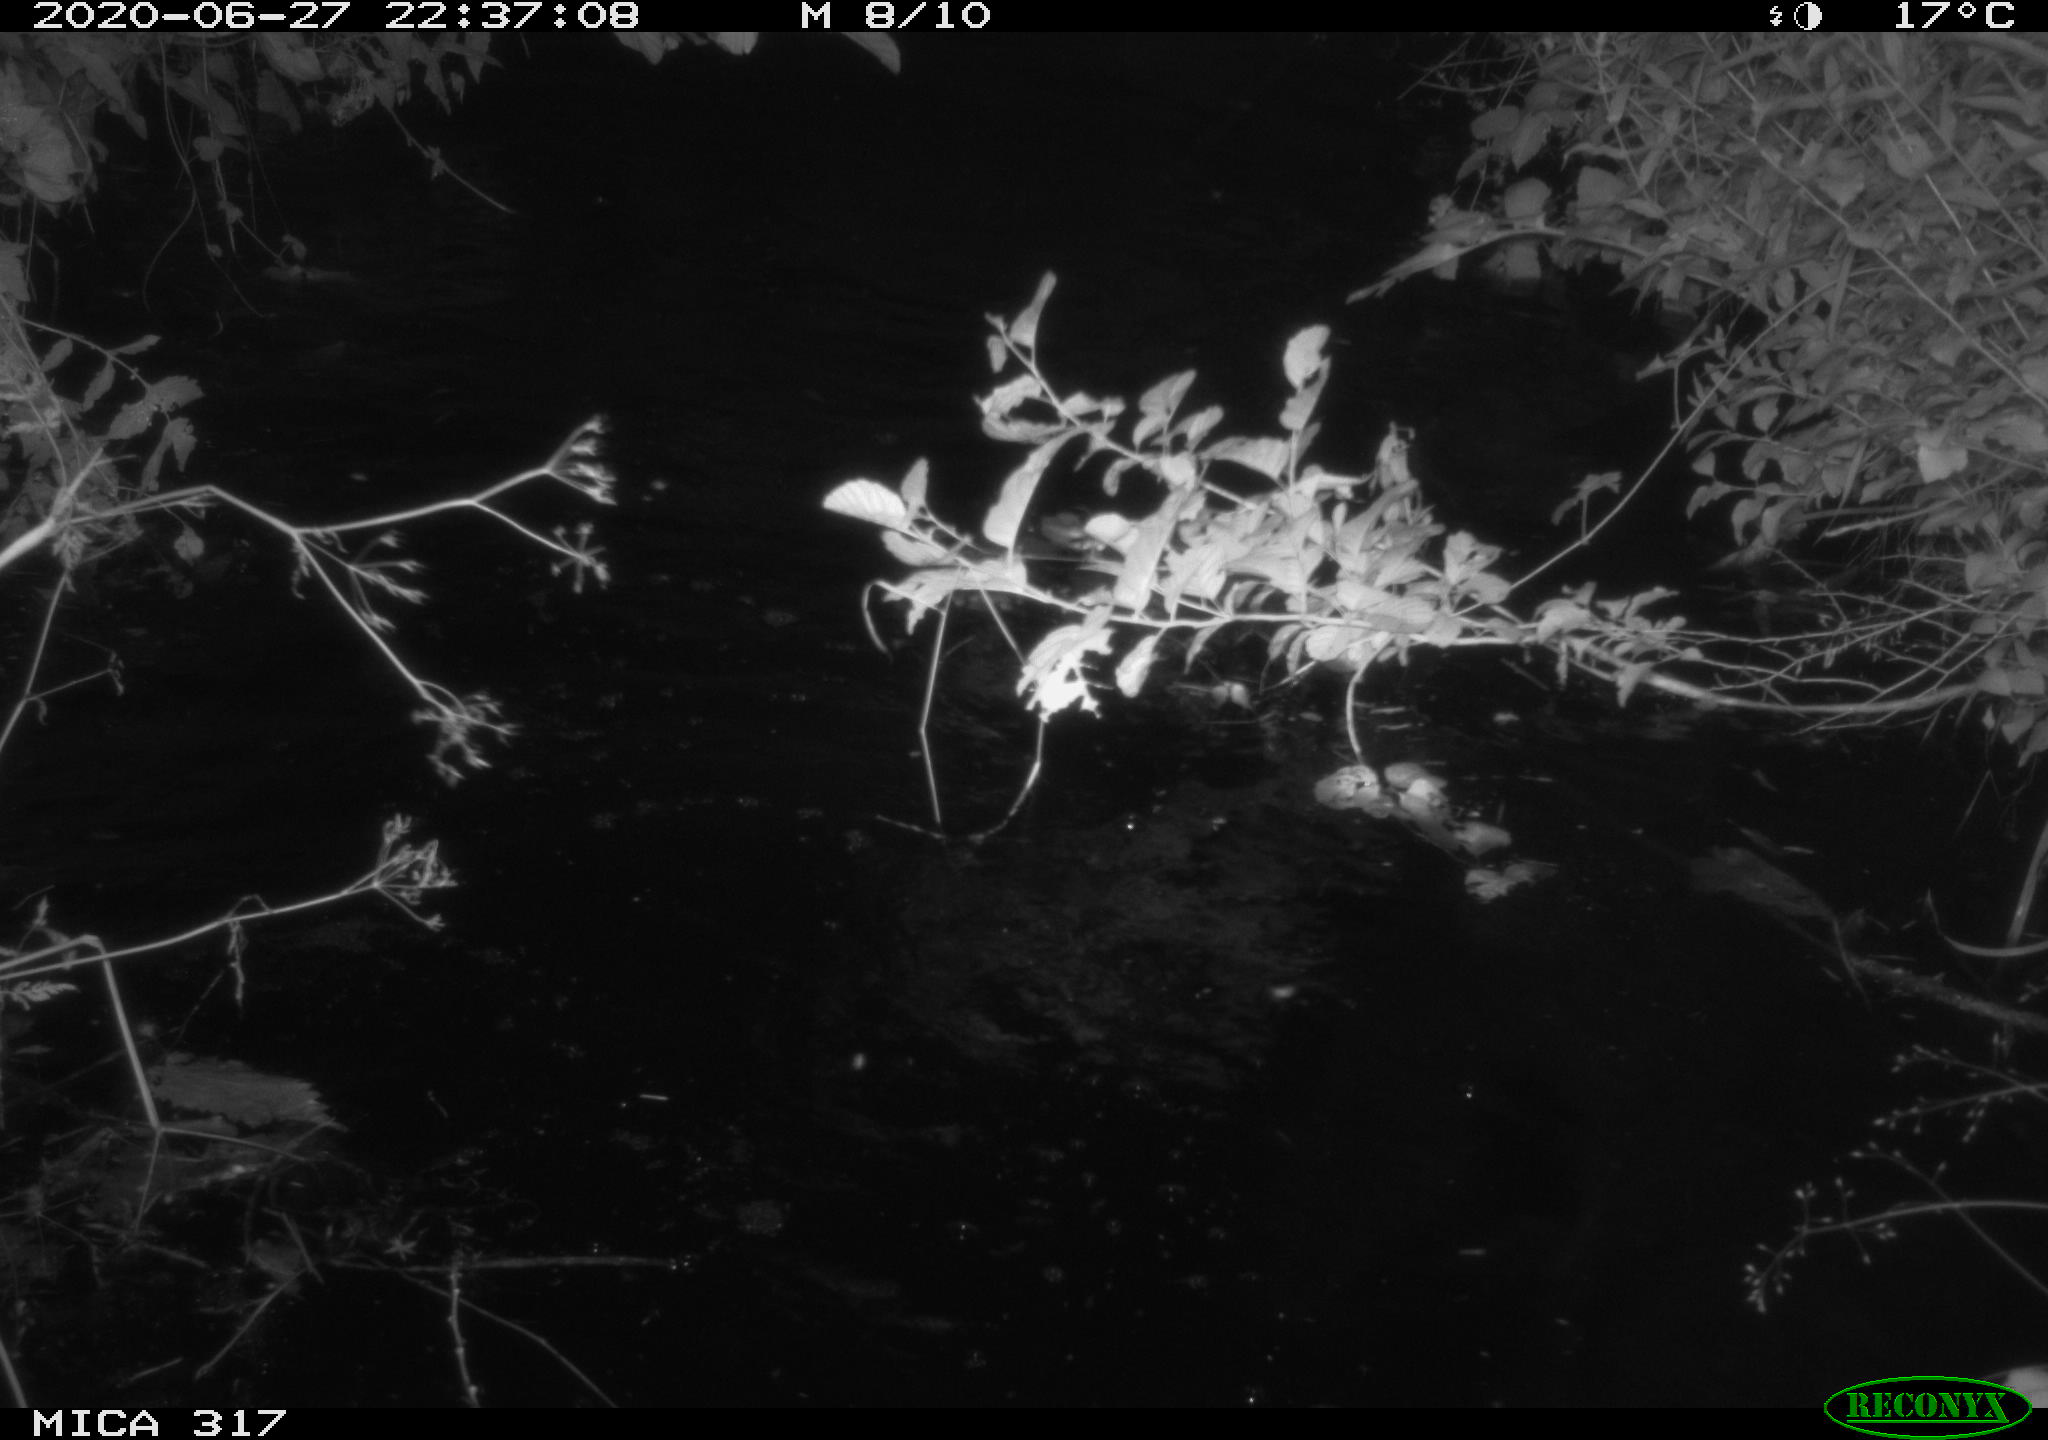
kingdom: Animalia
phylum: Chordata
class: Aves
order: Anseriformes
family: Anatidae
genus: Anas
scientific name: Anas platyrhynchos
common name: Mallard
